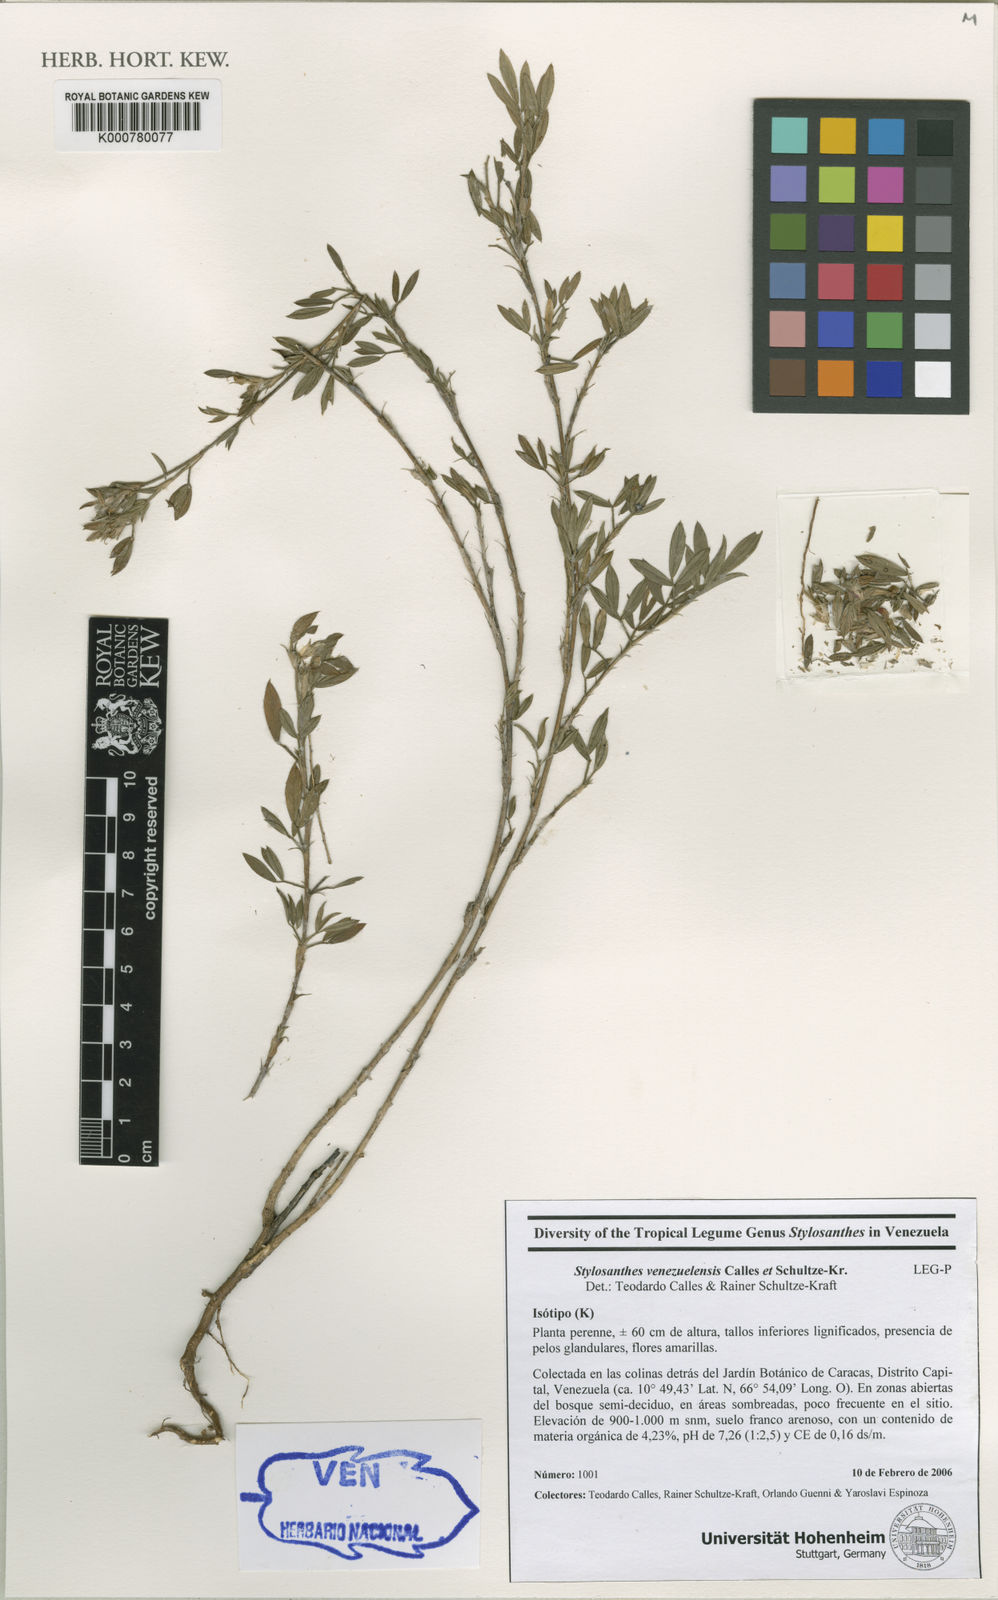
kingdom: Plantae
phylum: Tracheophyta
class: Magnoliopsida
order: Fabales
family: Fabaceae
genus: Stylosanthes
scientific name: Stylosanthes venezuelensis
